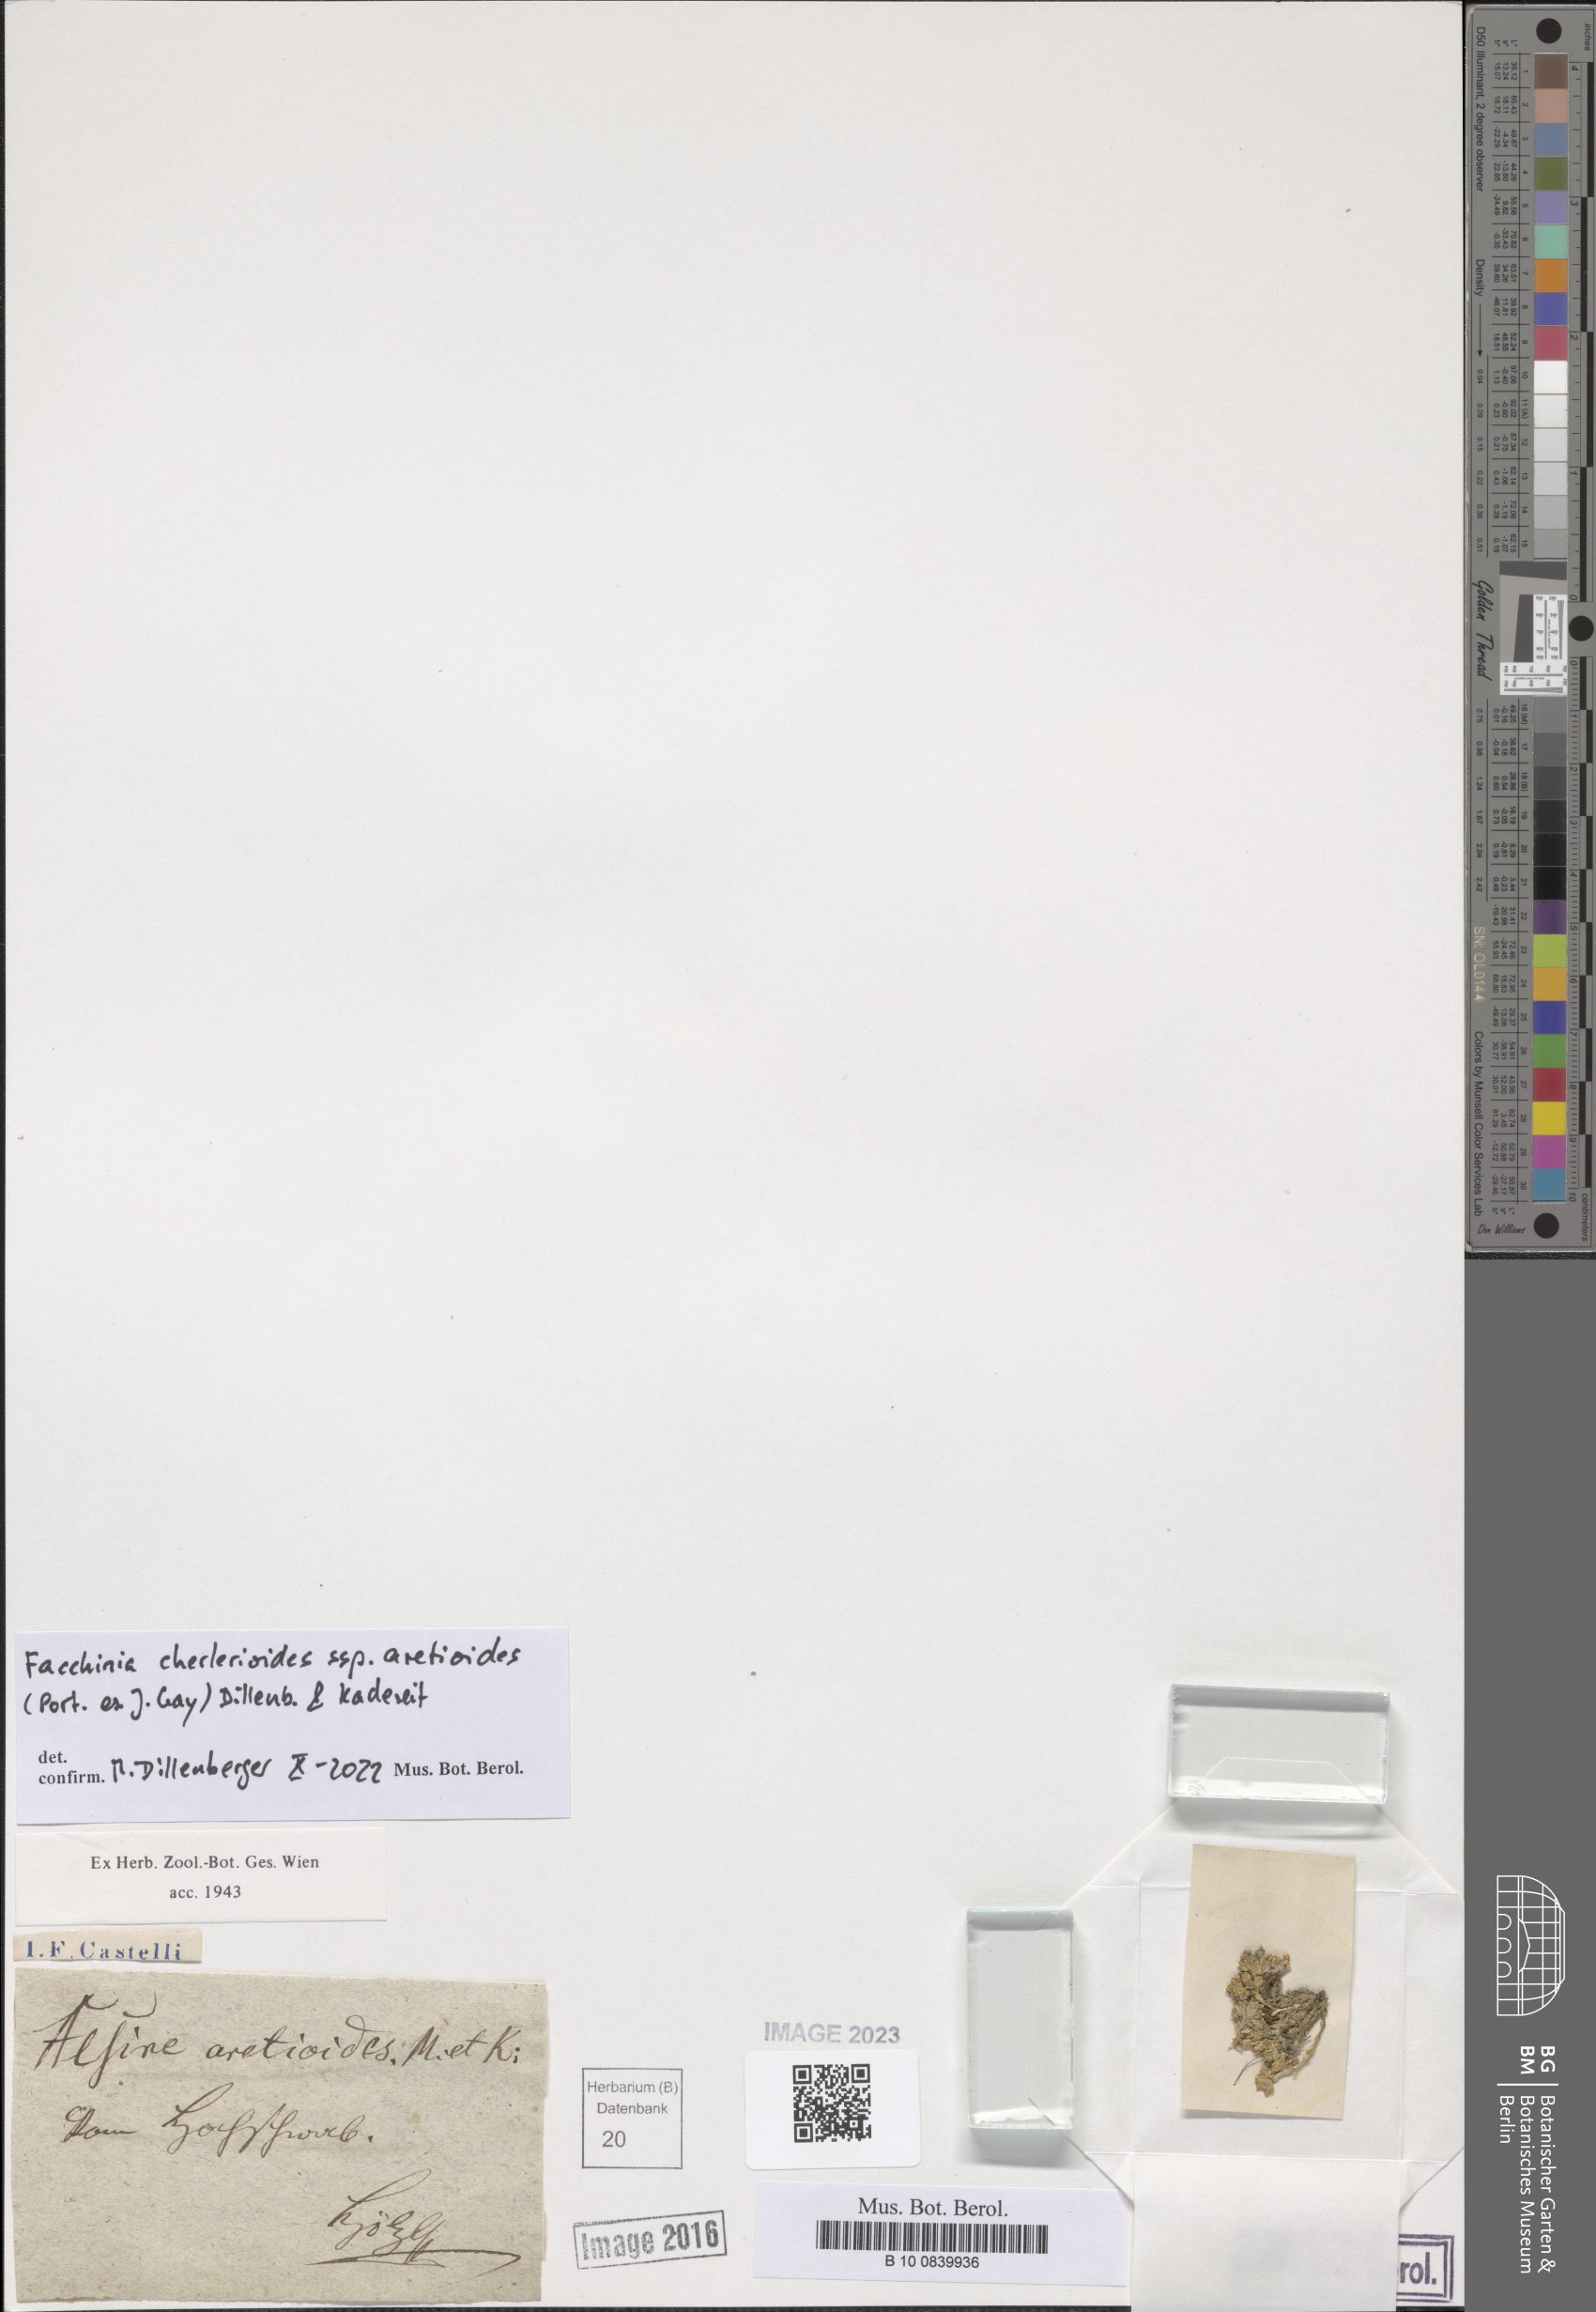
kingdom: Plantae
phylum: Tracheophyta
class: Magnoliopsida
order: Caryophyllales
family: Caryophyllaceae
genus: Facchinia
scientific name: Facchinia cherlerioides
